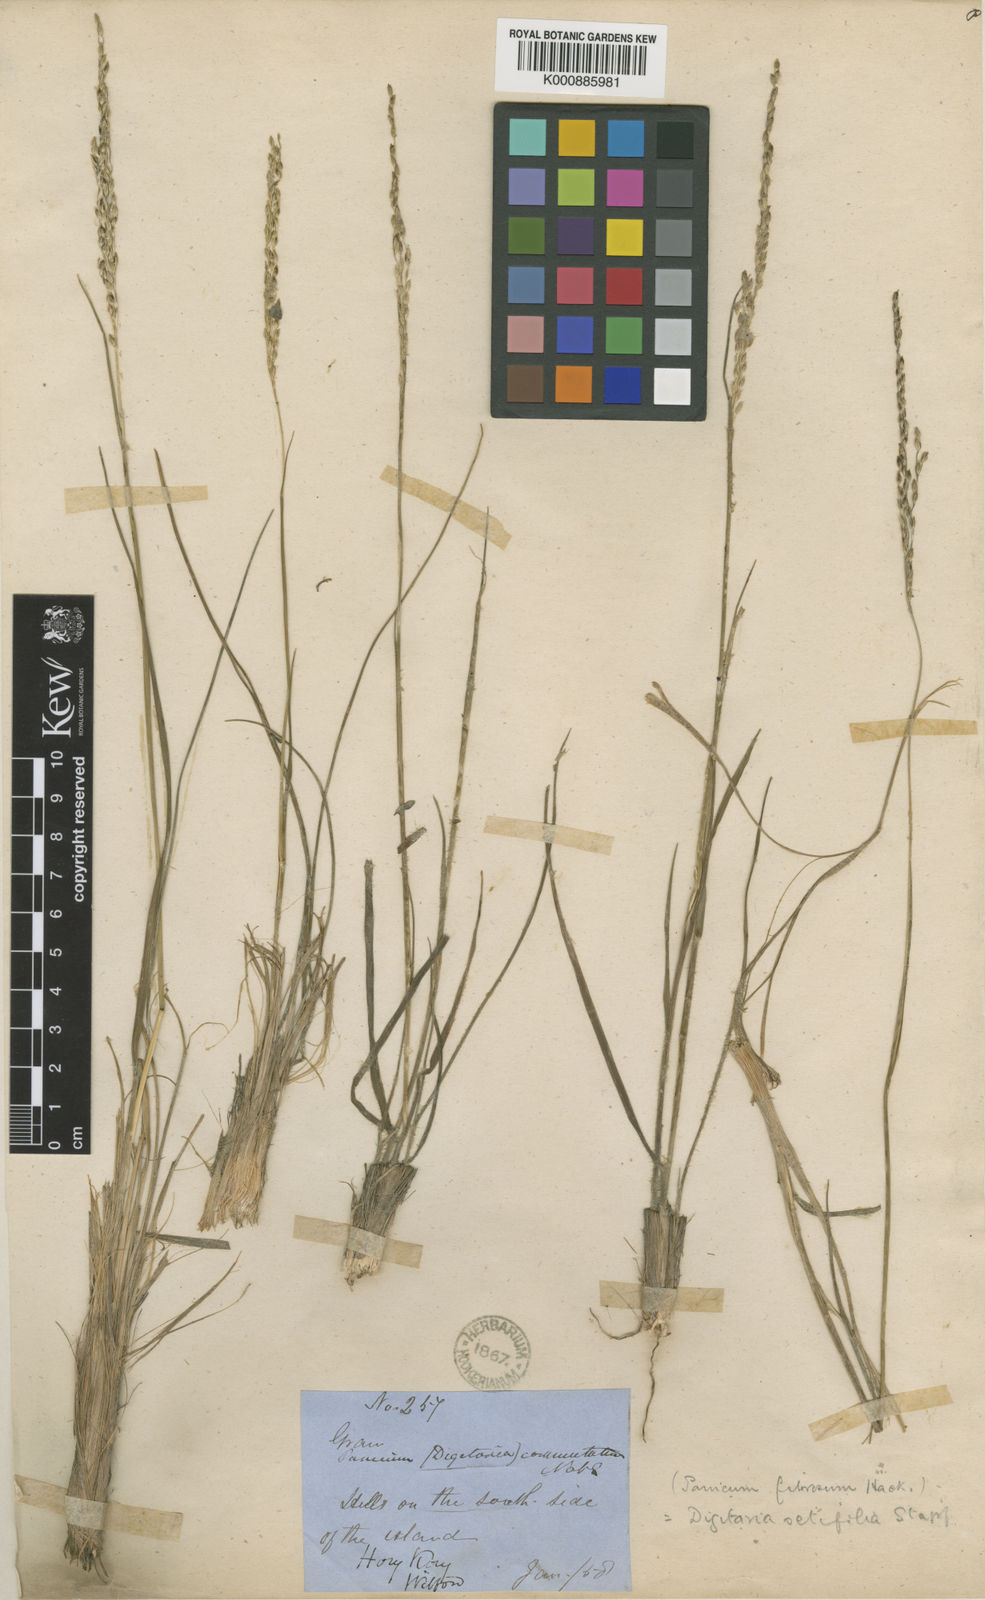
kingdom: Plantae
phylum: Tracheophyta
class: Liliopsida
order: Poales
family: Poaceae
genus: Digitaria
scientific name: Digitaria setifolia
